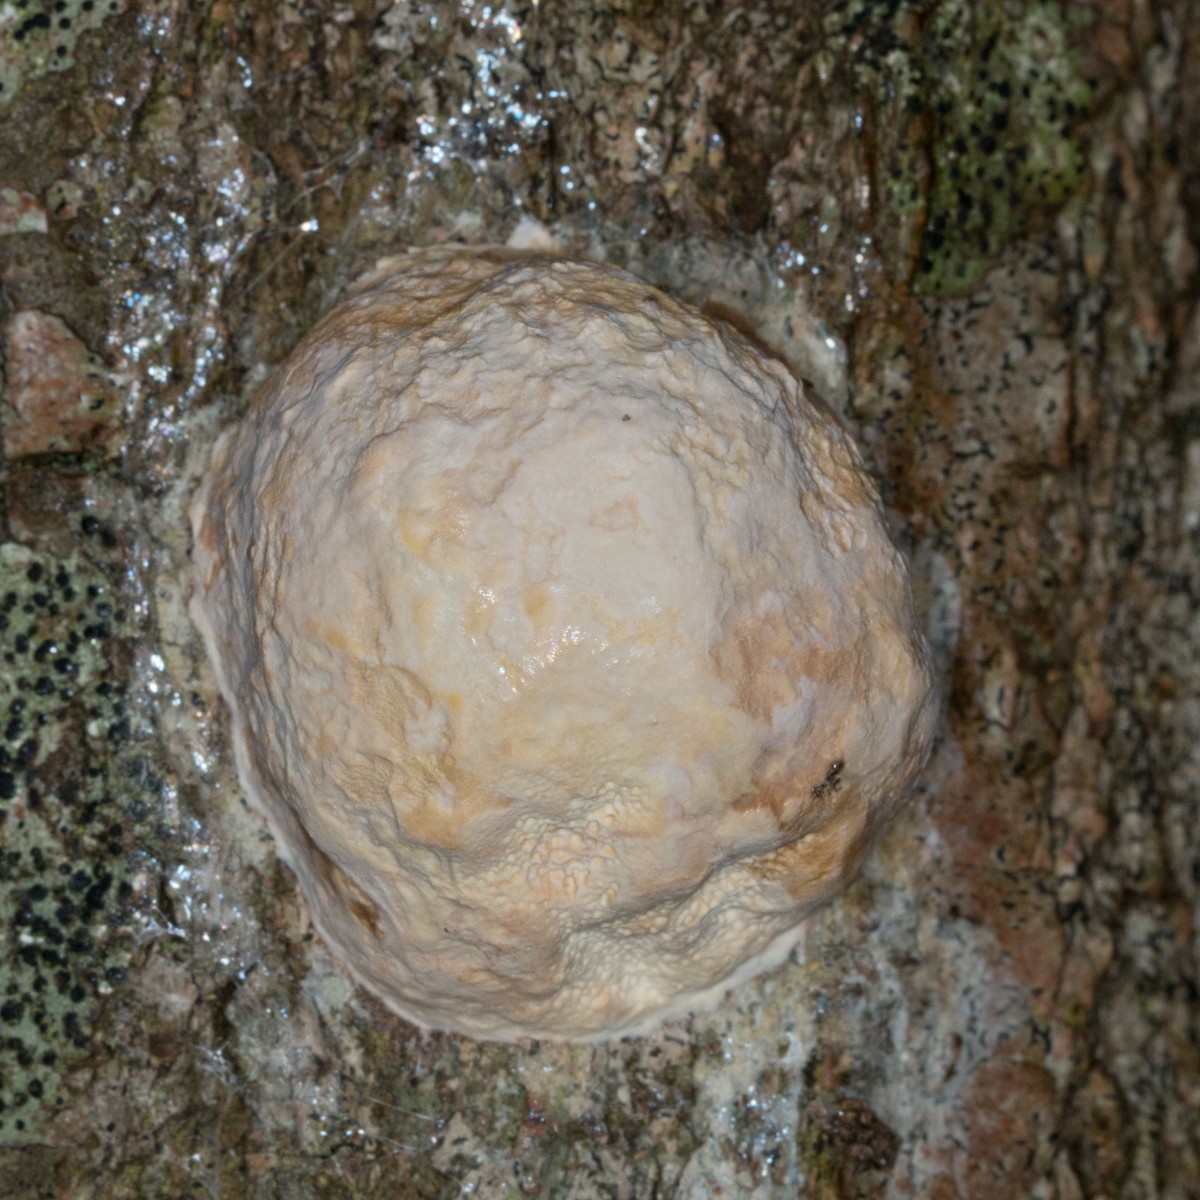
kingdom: Fungi
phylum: Basidiomycota
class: Agaricomycetes
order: Polyporales
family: Fomitopsidaceae
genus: Fomitopsis
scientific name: Fomitopsis pinicola
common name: randbæltet hovporesvamp
